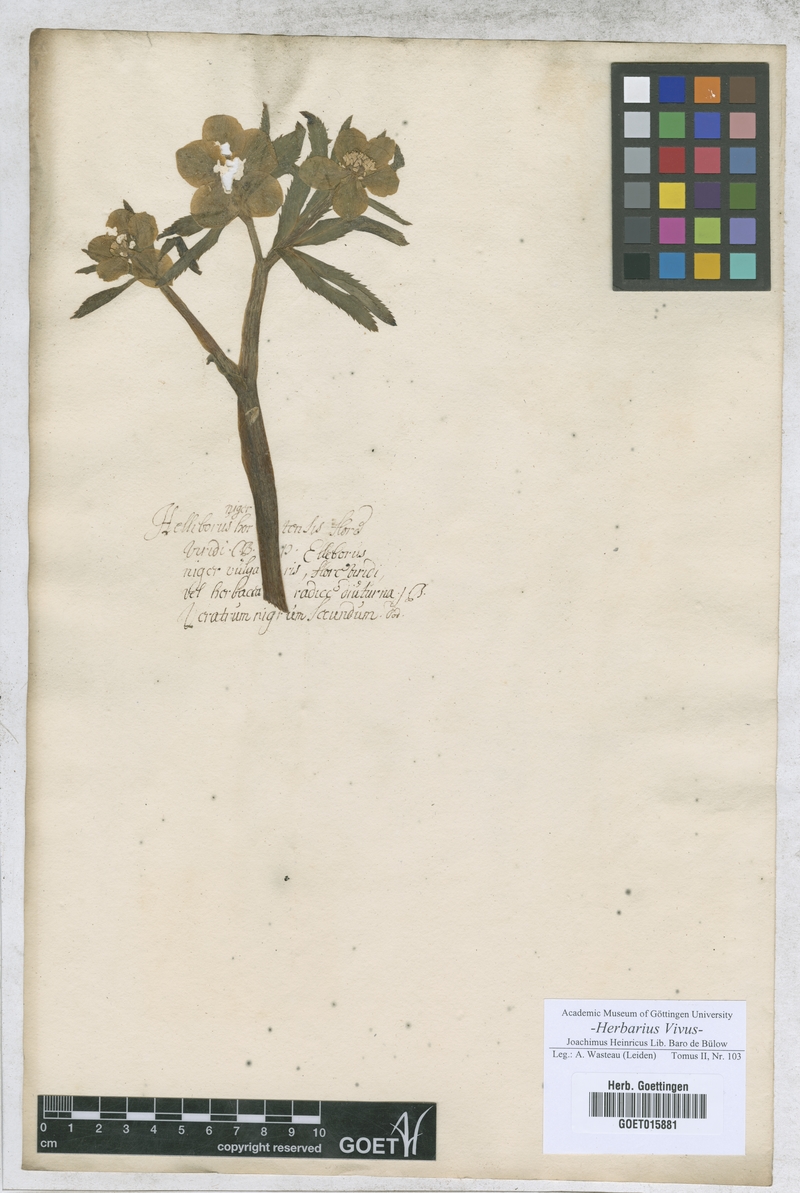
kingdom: Plantae
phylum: Tracheophyta
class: Magnoliopsida
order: Ranunculales
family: Ranunculaceae
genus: Helleborus
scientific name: Helleborus viridis
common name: Green hellebore
